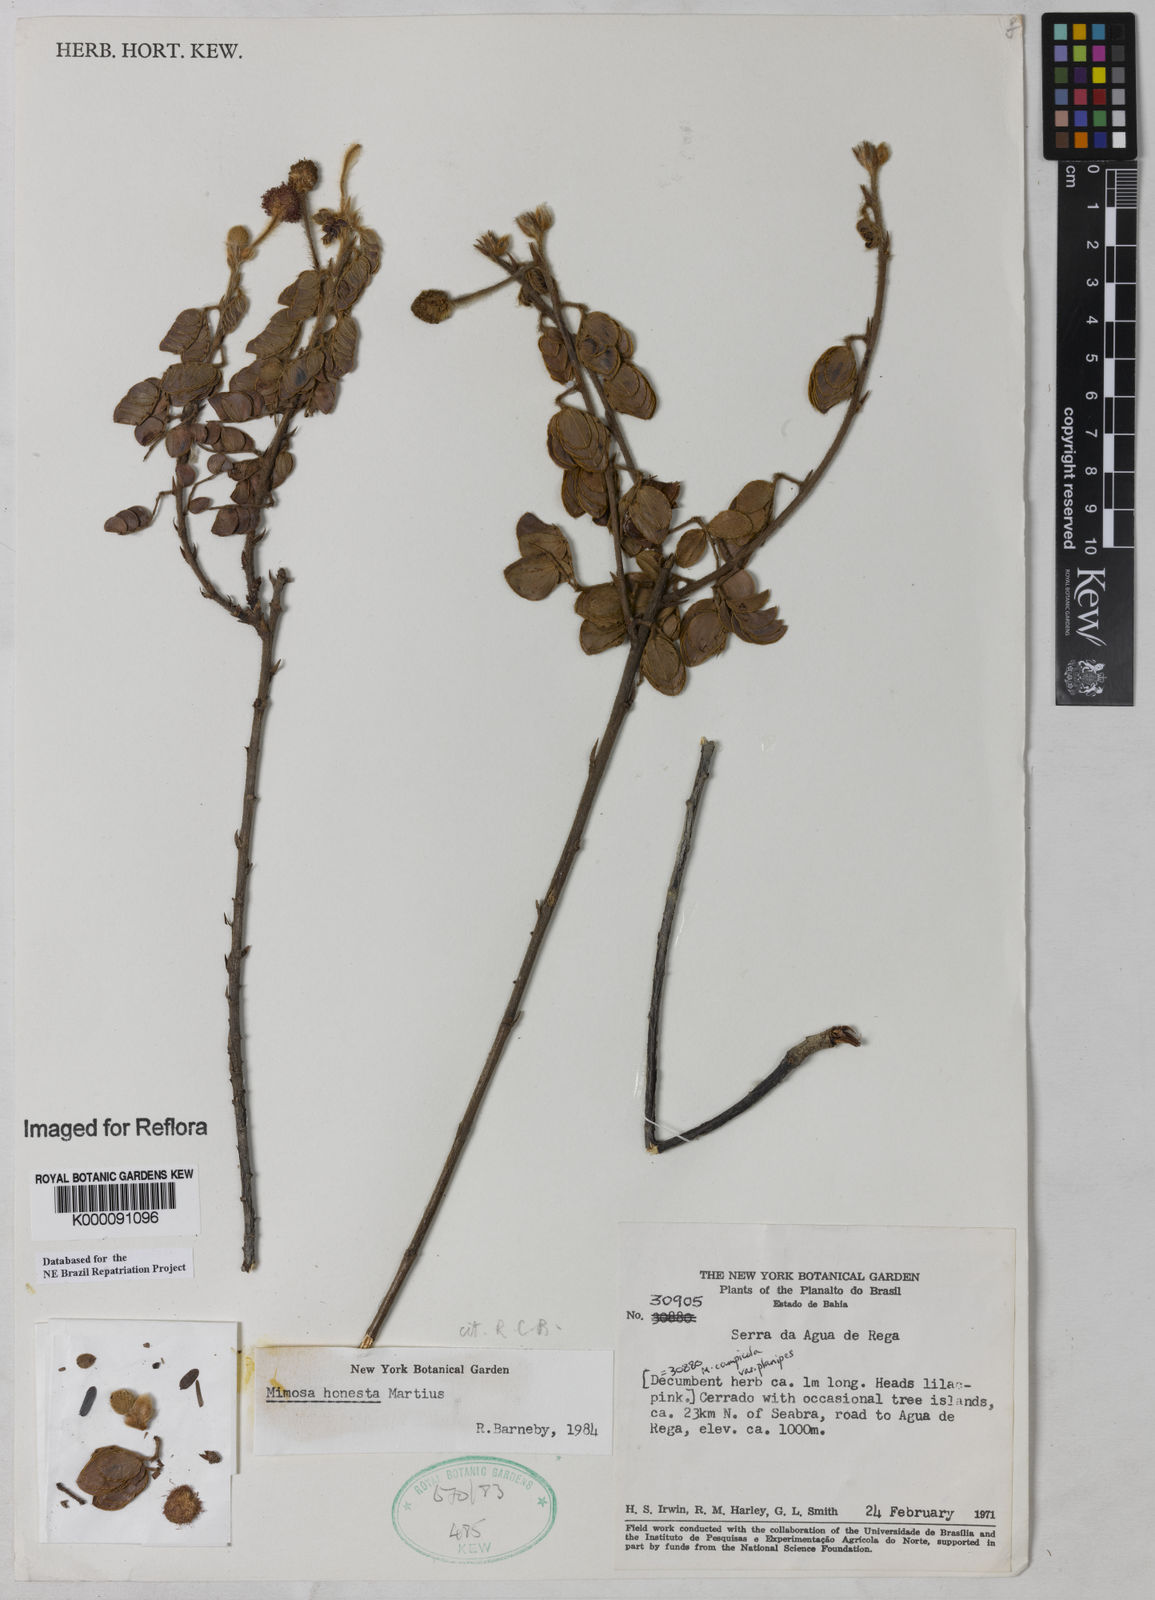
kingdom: Plantae
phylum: Tracheophyta
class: Magnoliopsida
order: Fabales
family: Fabaceae
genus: Mimosa
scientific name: Mimosa honesta
